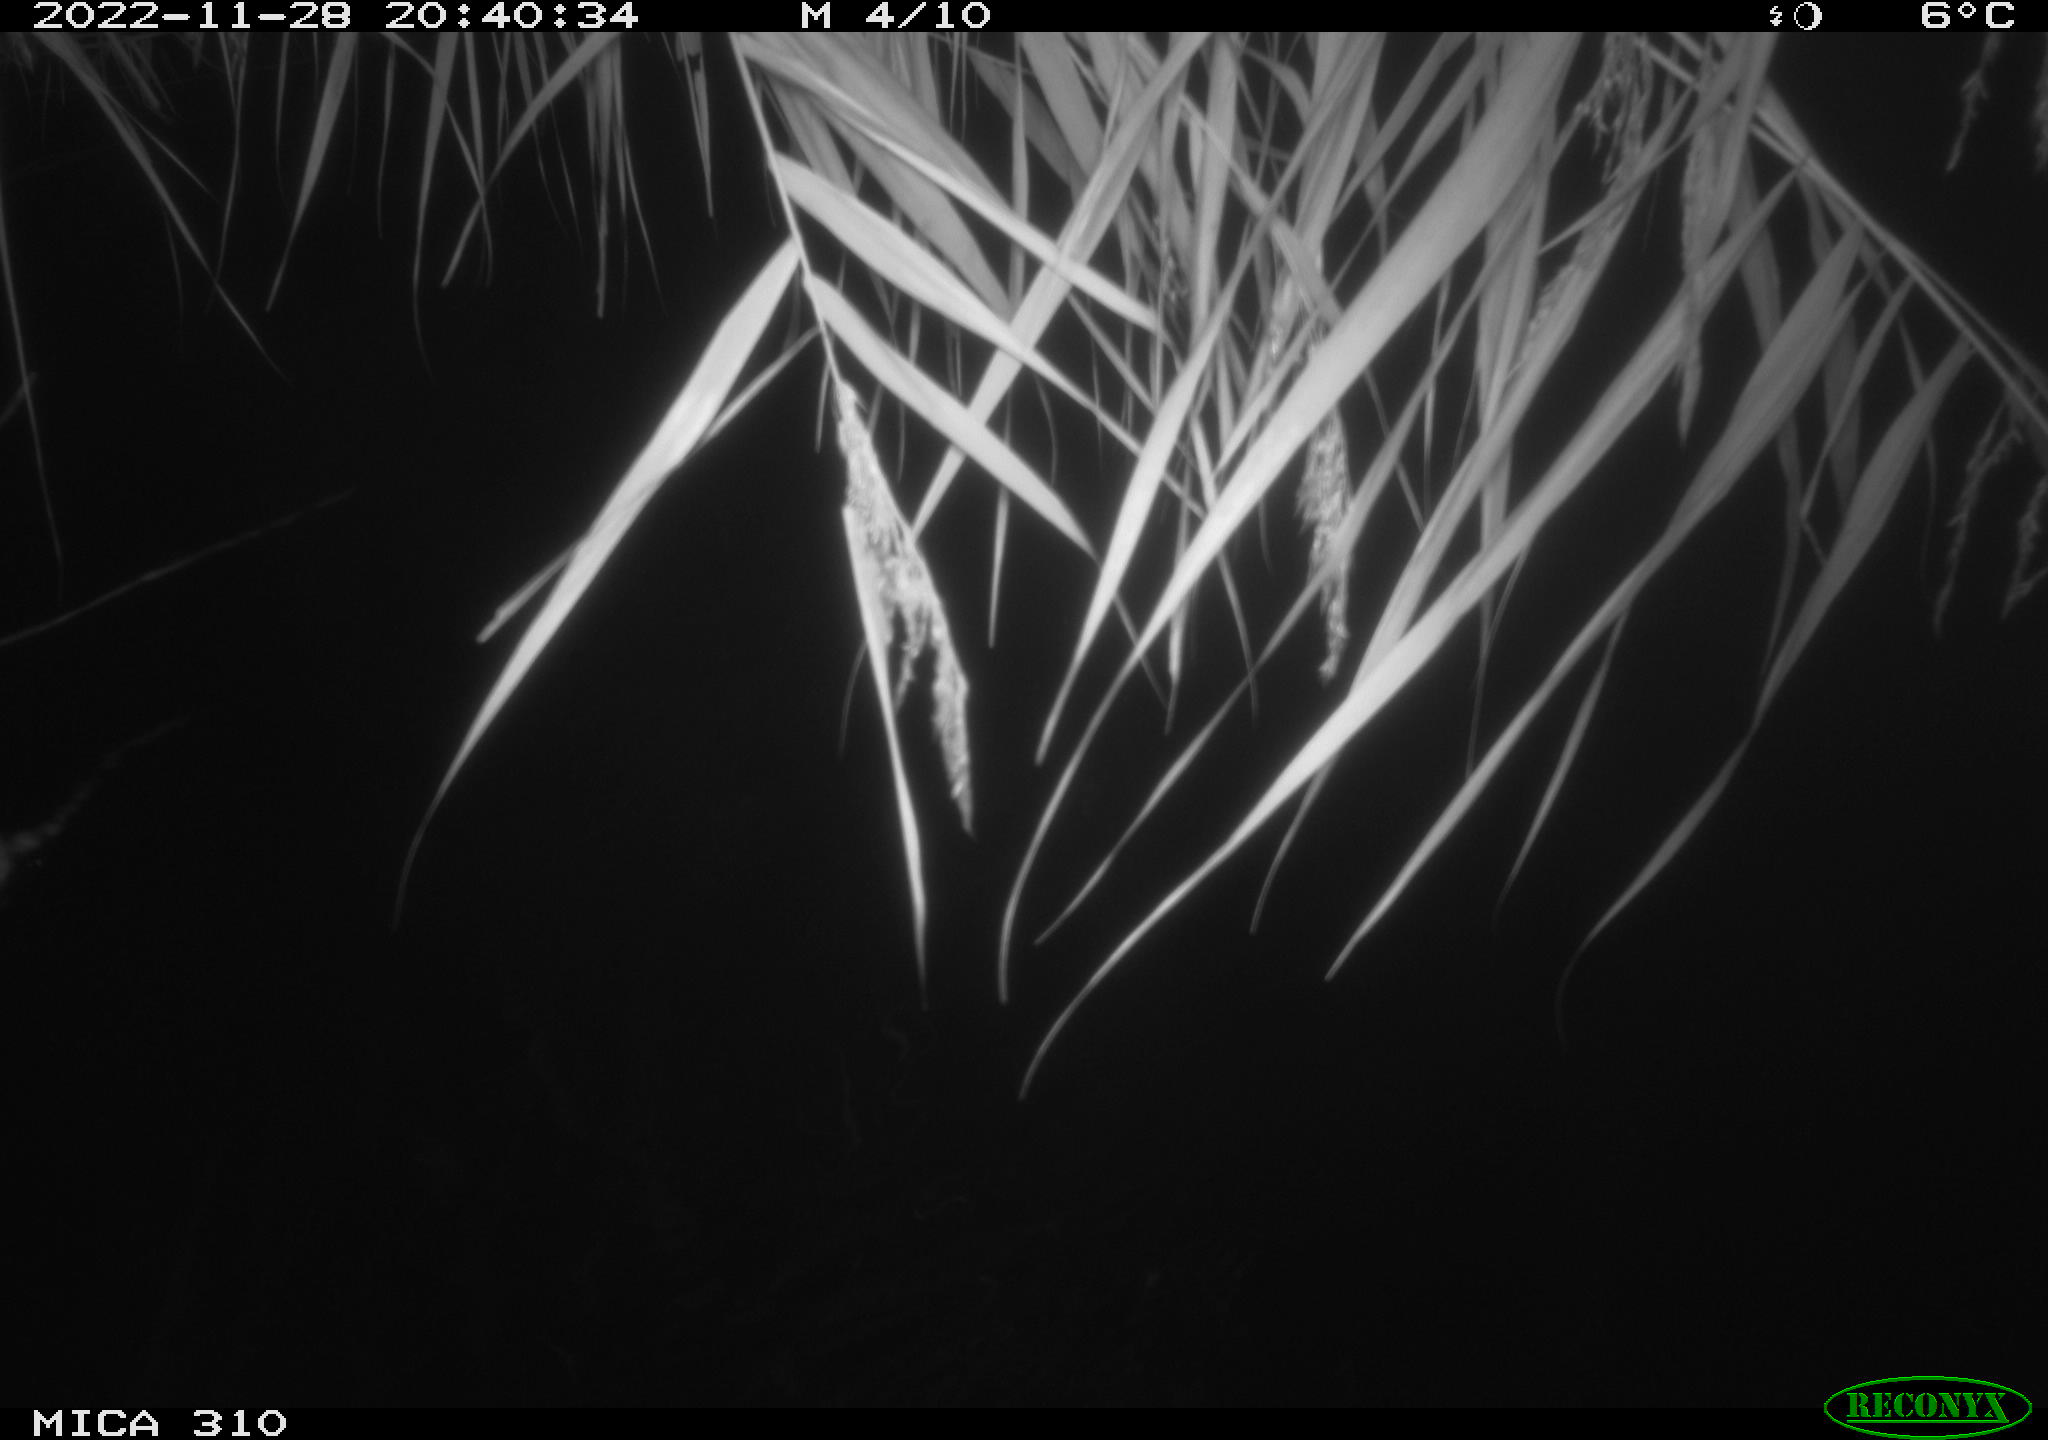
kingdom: Animalia
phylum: Chordata
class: Mammalia
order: Rodentia
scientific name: Rodentia
